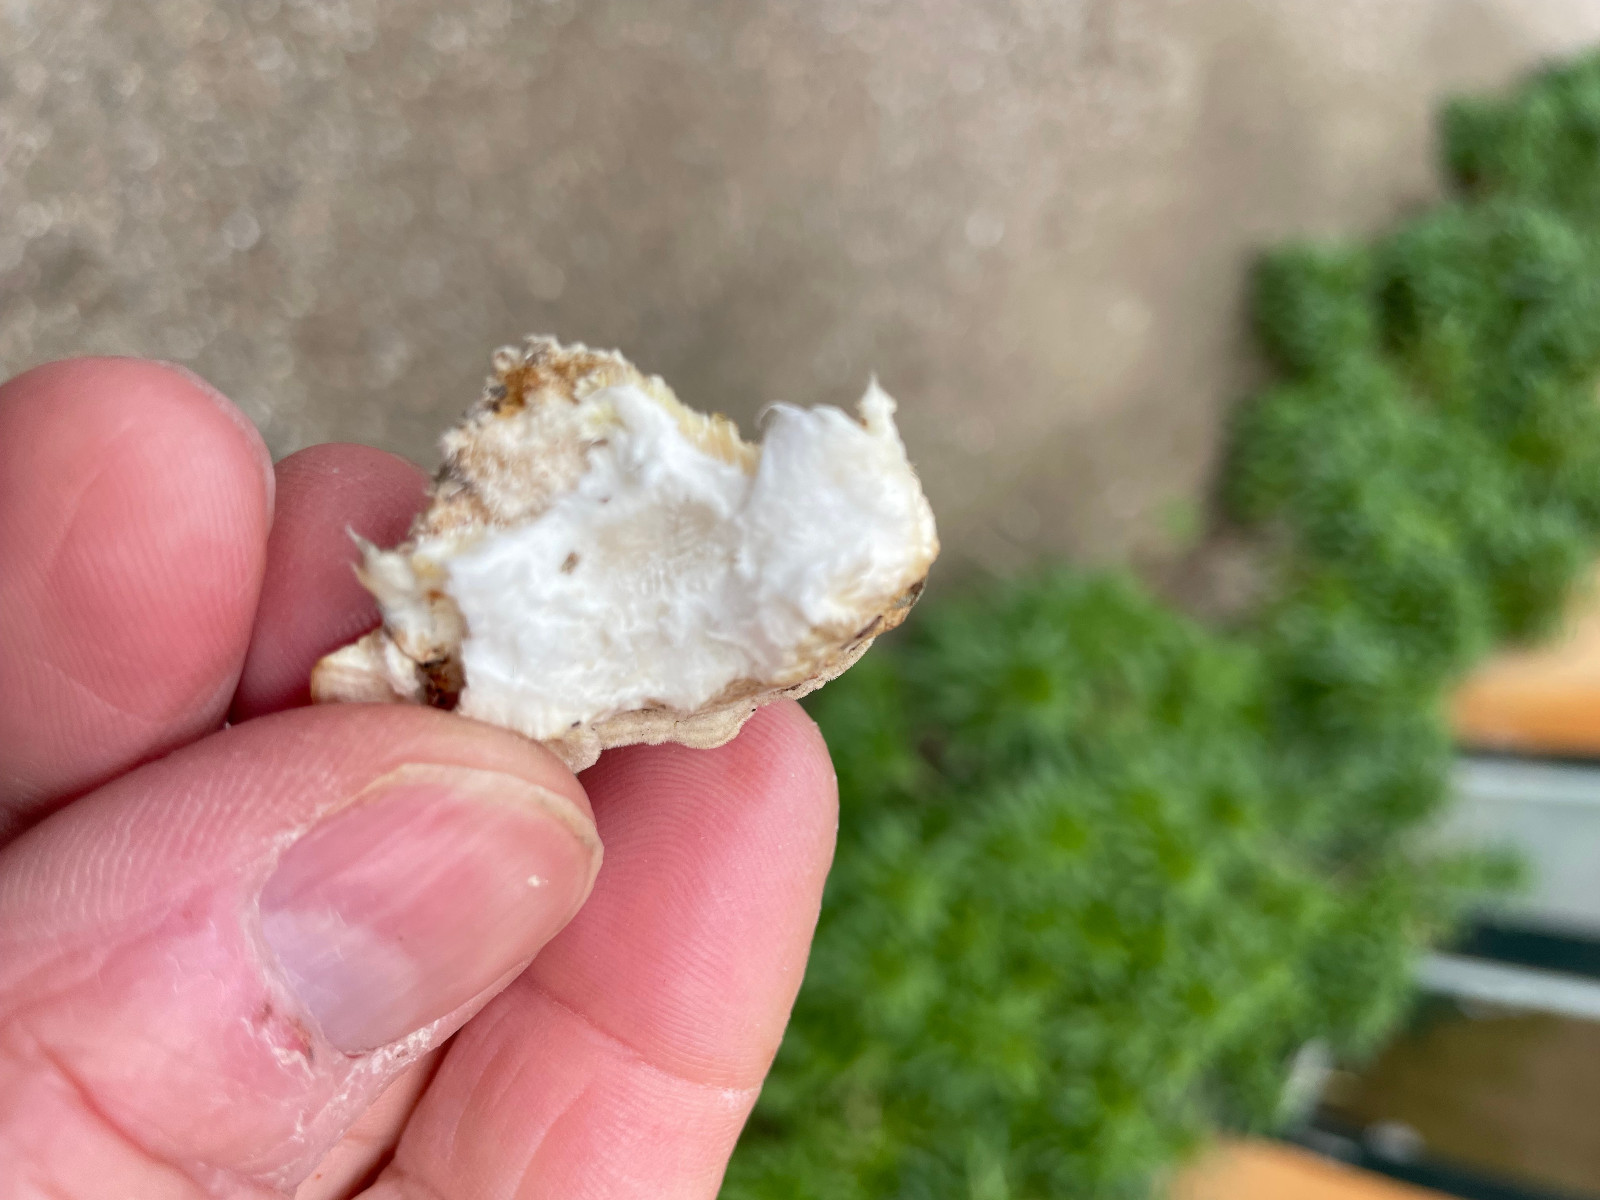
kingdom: Fungi
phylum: Basidiomycota
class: Agaricomycetes
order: Polyporales
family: Polyporaceae
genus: Trametes
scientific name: Trametes
